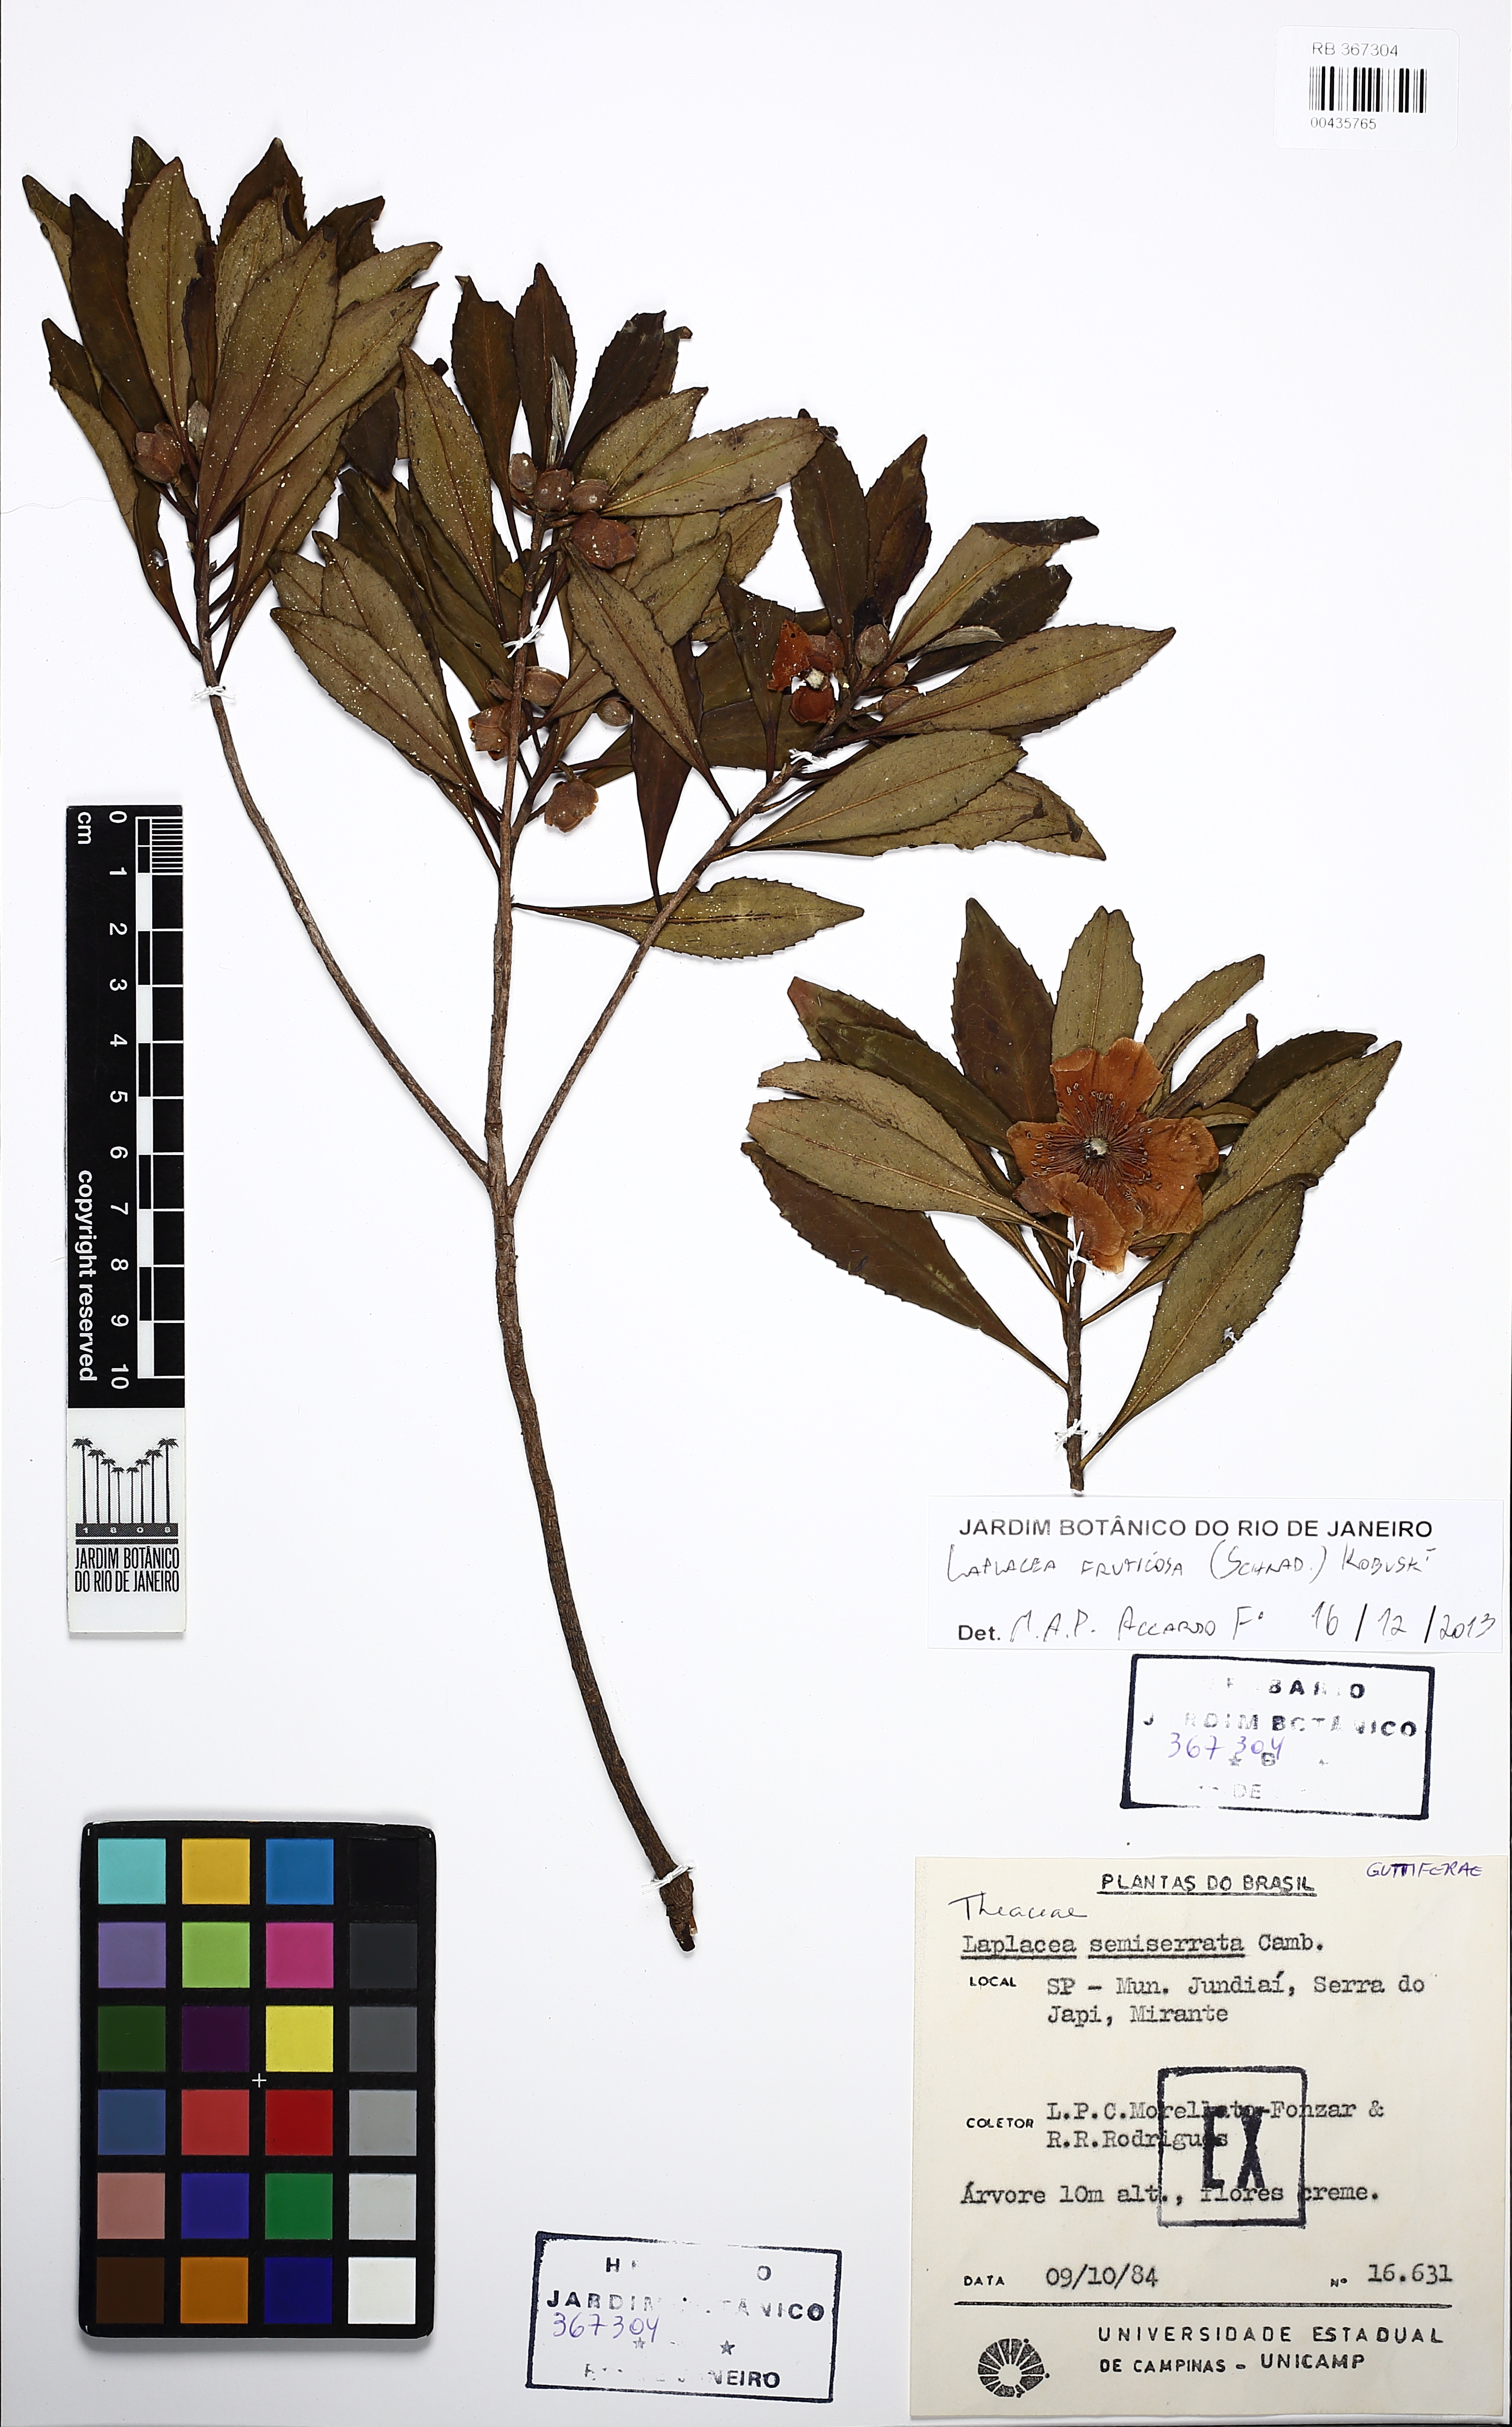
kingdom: Plantae
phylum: Tracheophyta
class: Magnoliopsida
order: Ericales
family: Theaceae
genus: Gordonia
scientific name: Gordonia fruticosa
